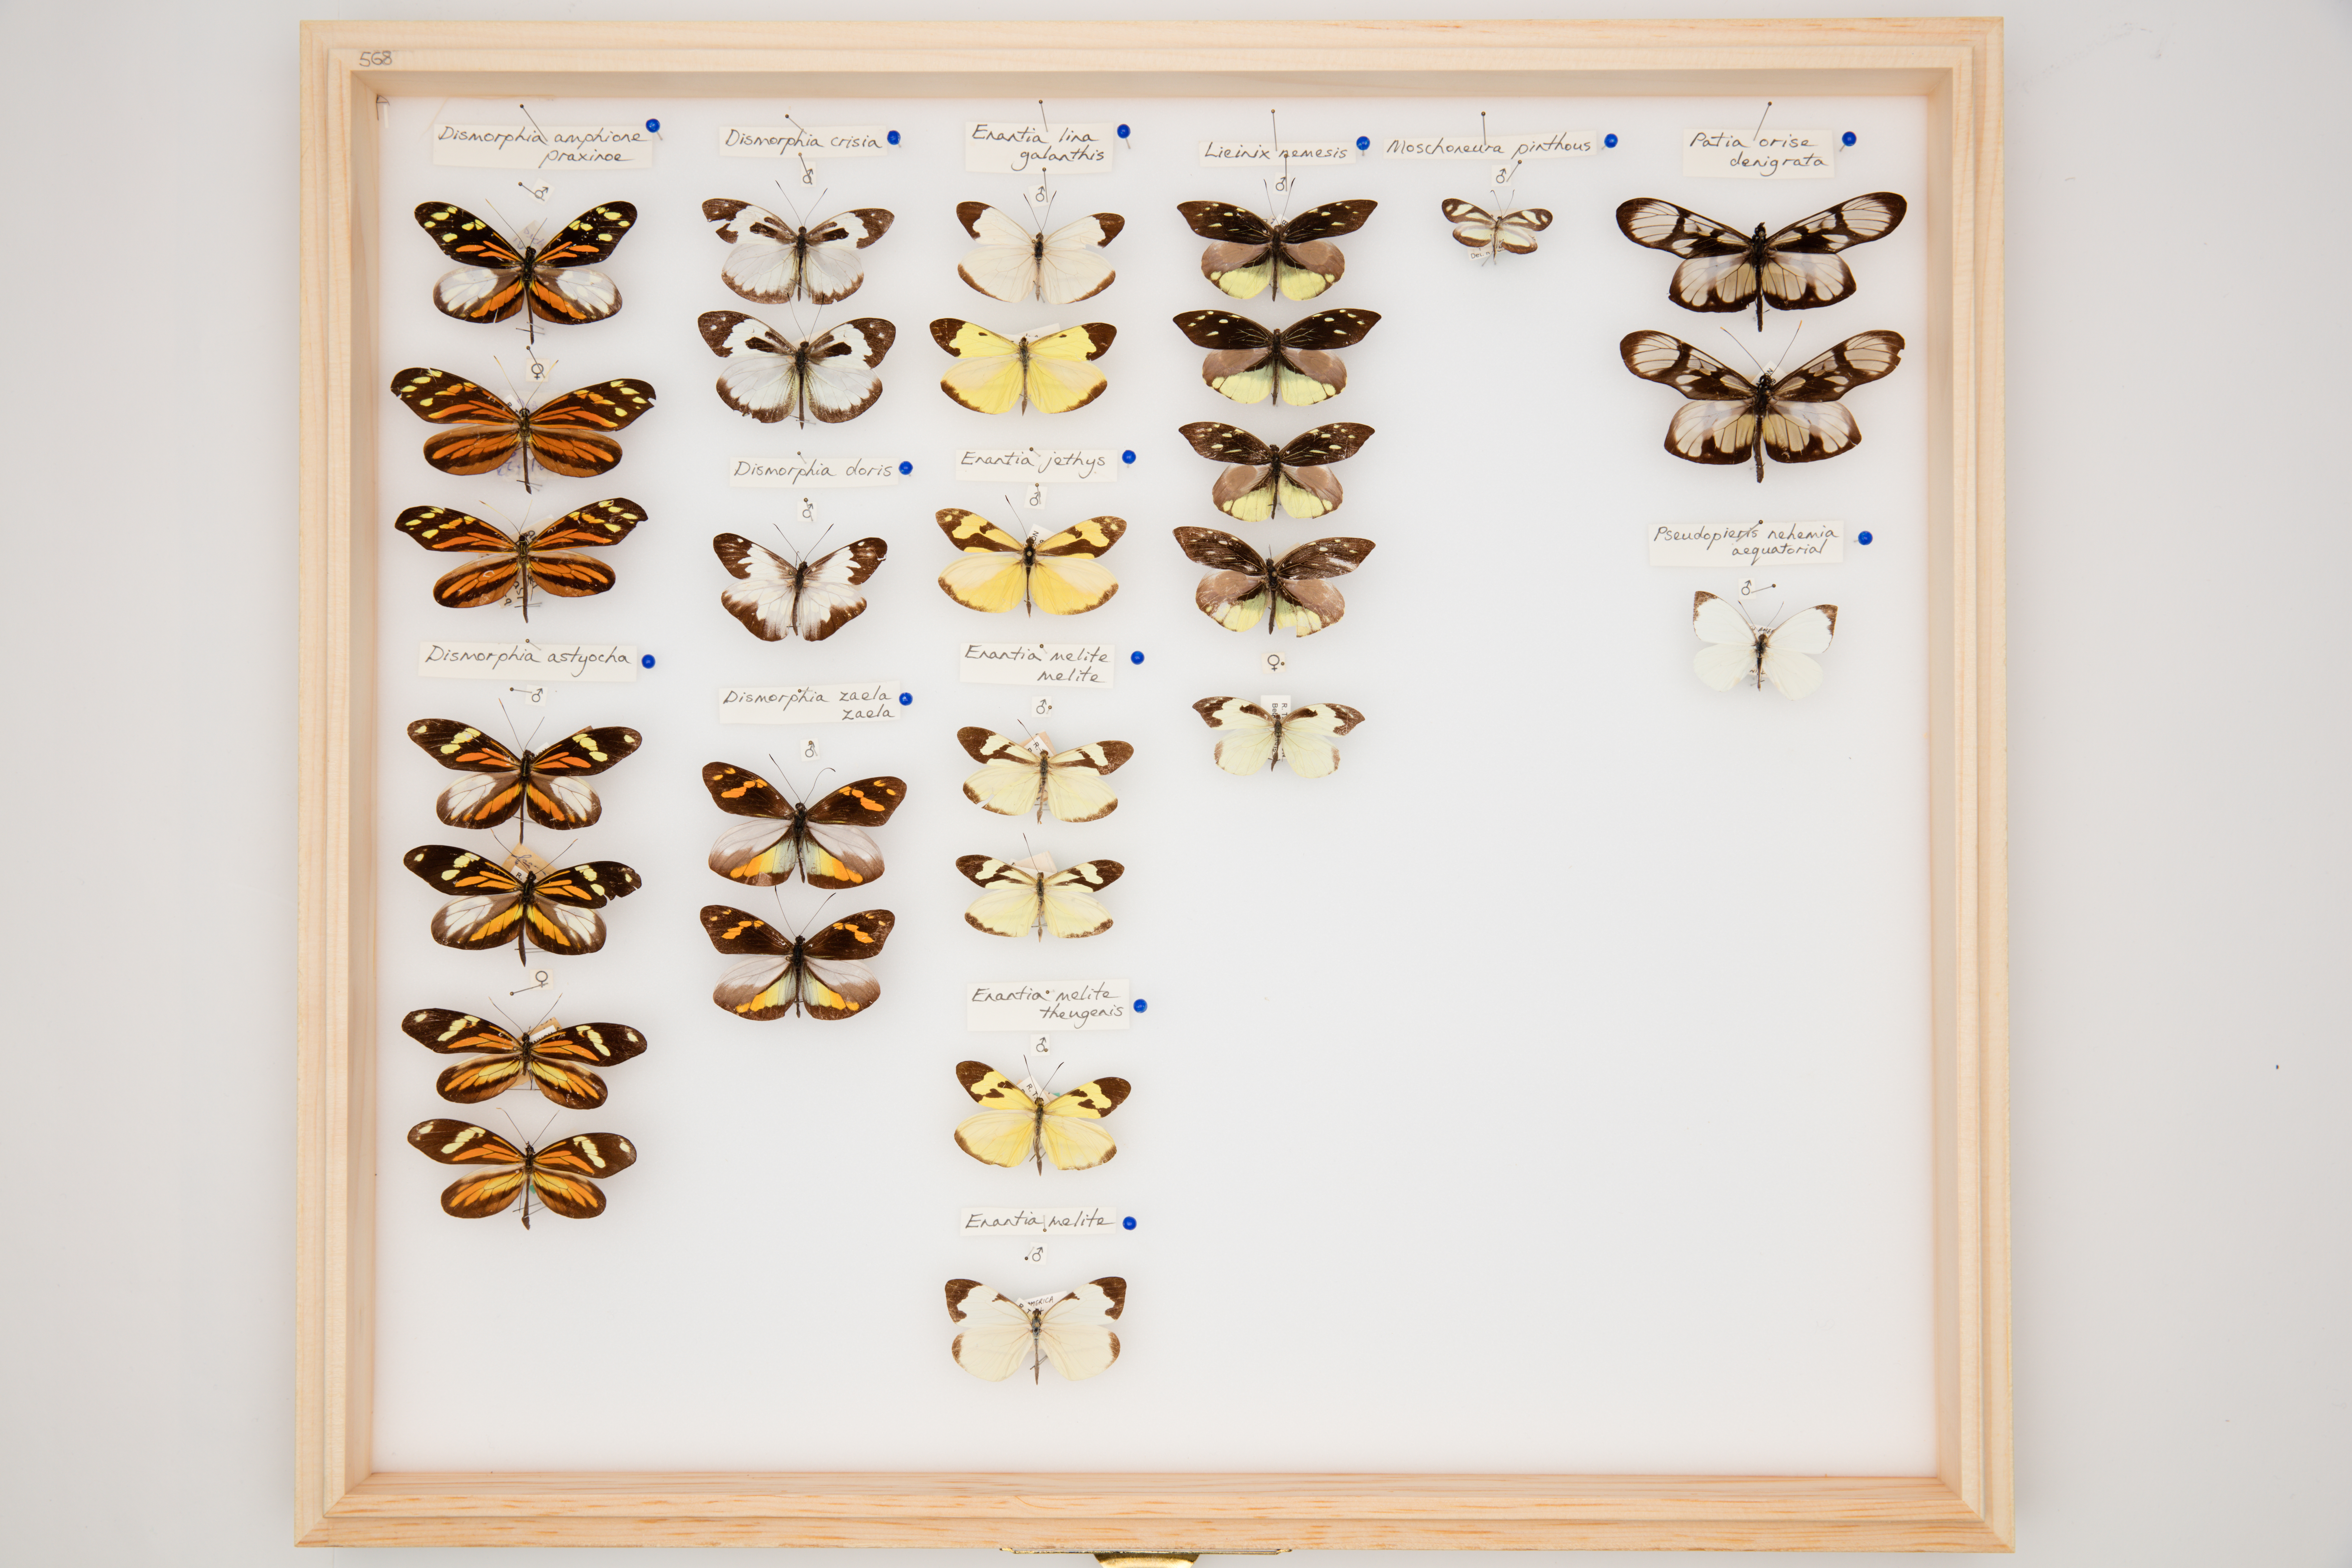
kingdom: Animalia
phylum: Arthropoda
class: Insecta
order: Lepidoptera
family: Pieridae
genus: Dismorphia
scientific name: Dismorphia zaela
